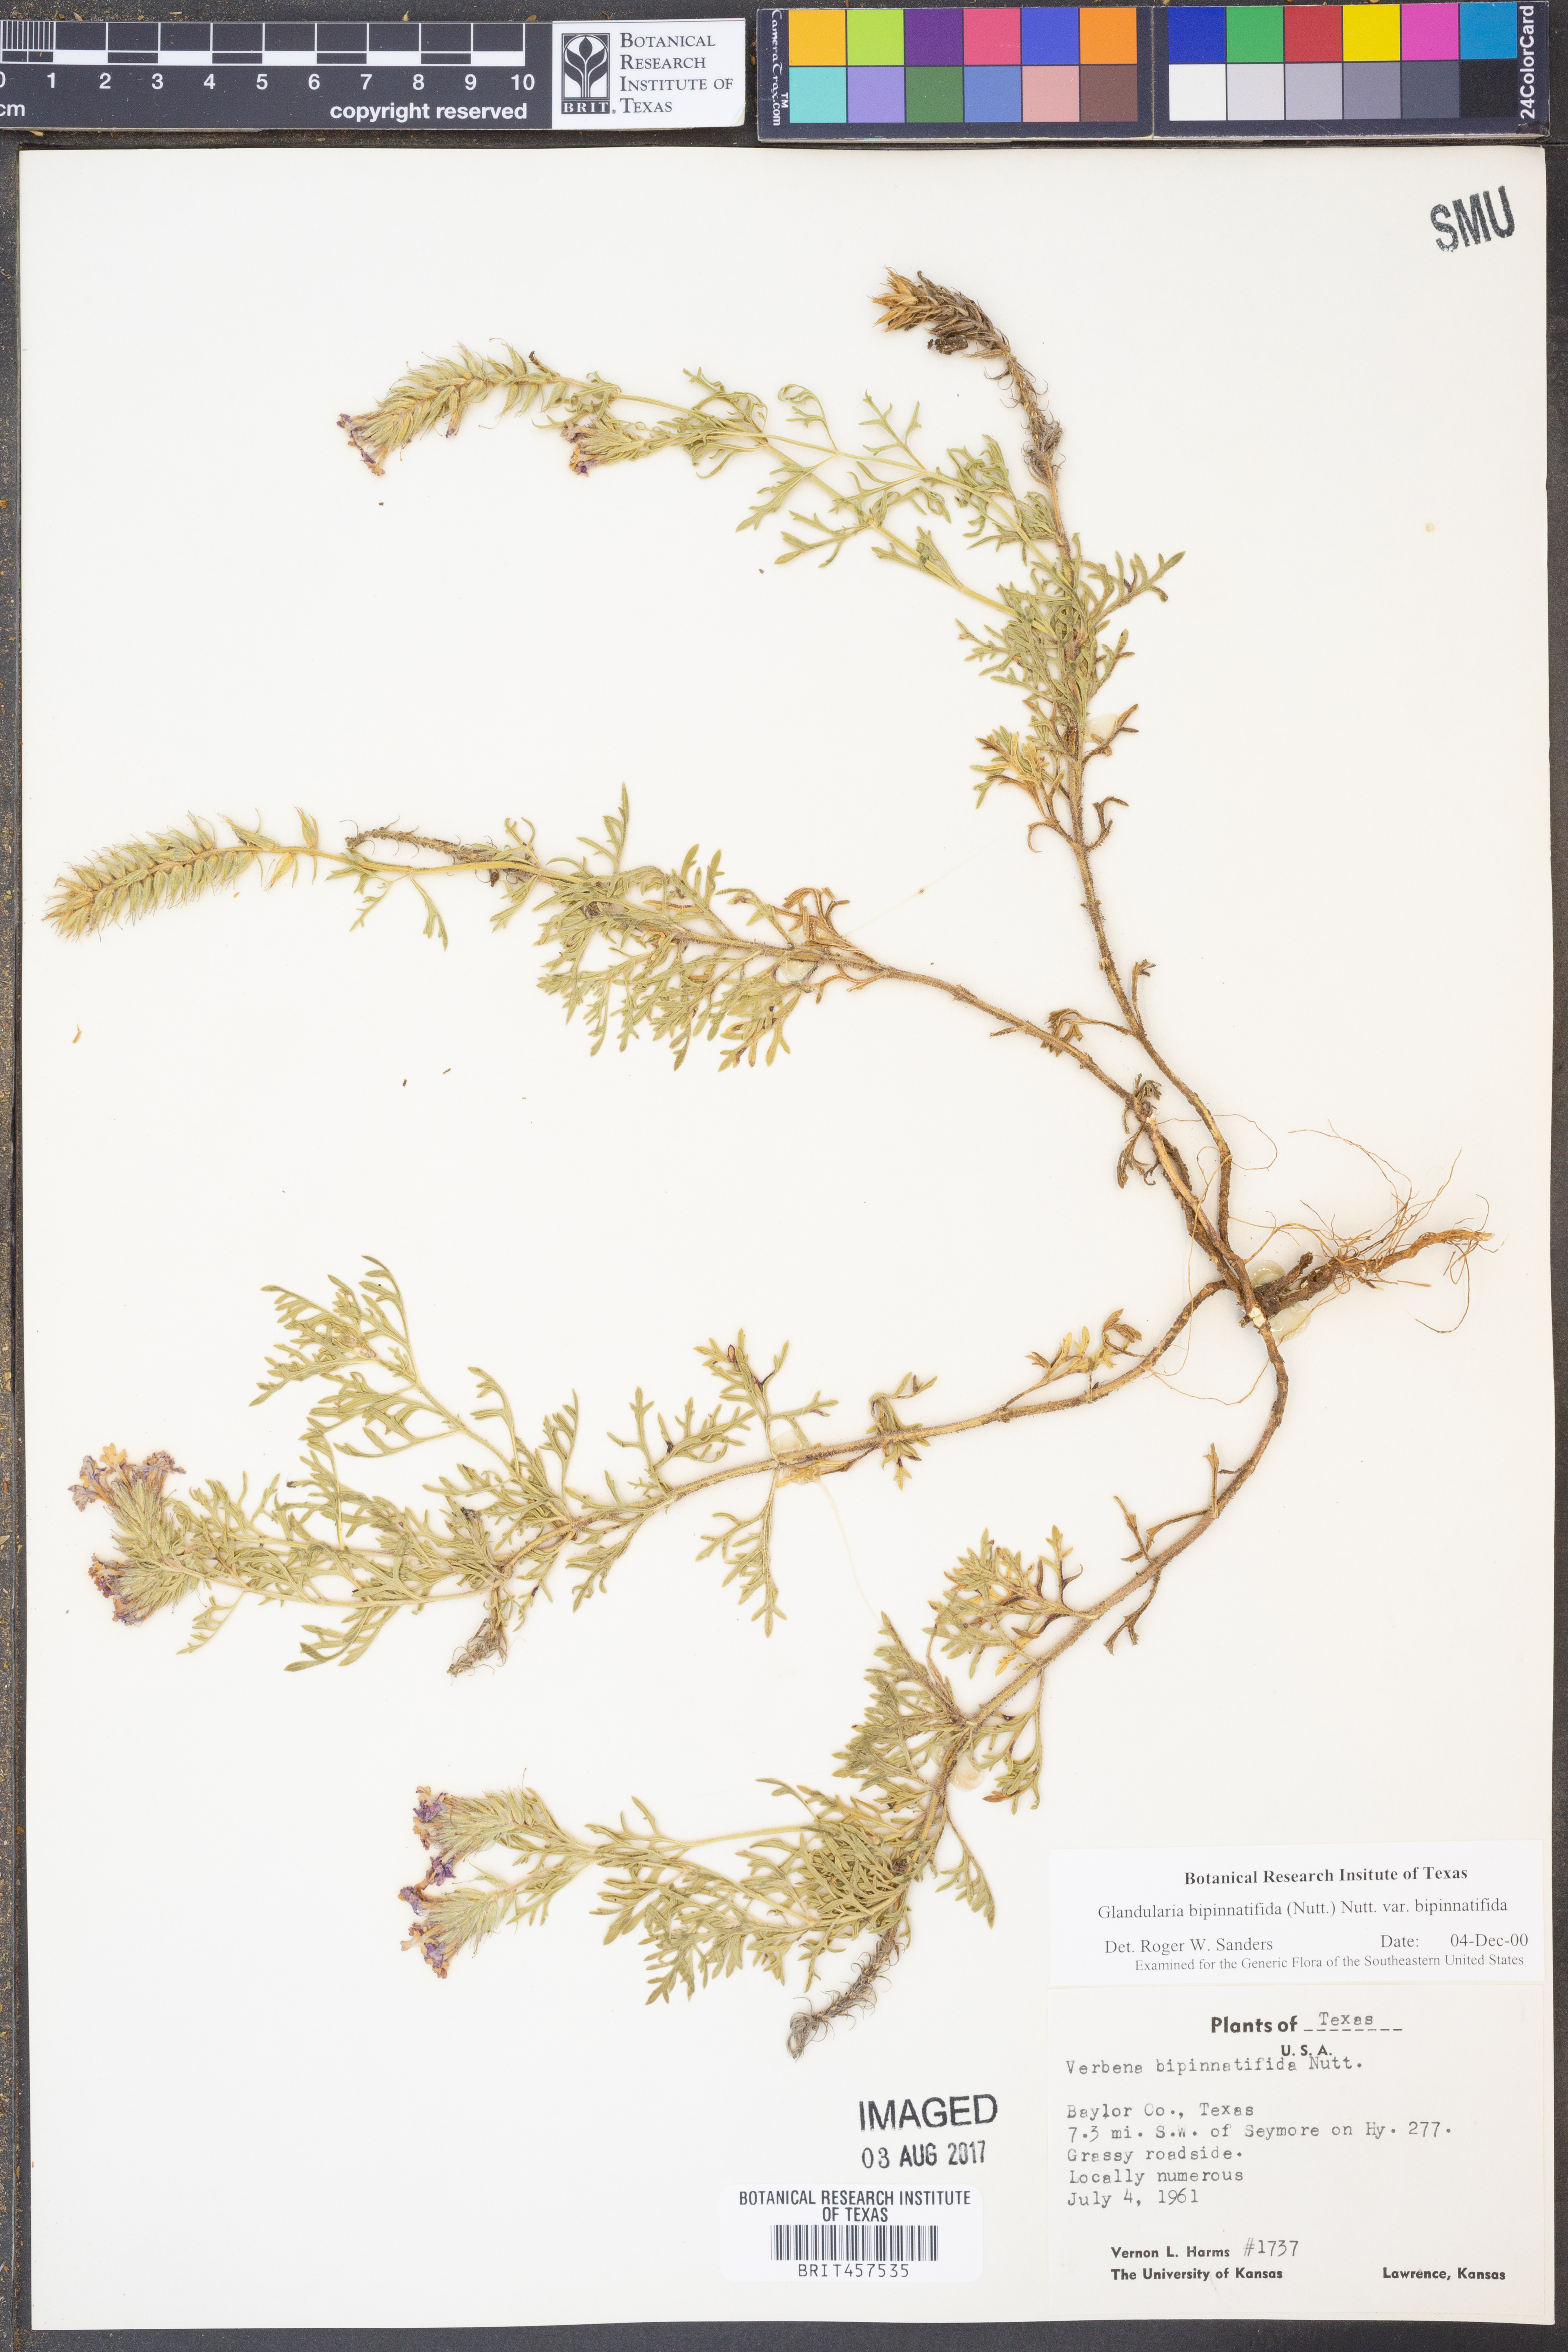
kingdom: Plantae
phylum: Tracheophyta
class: Magnoliopsida
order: Lamiales
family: Verbenaceae
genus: Verbena
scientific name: Verbena bipinnatifida
